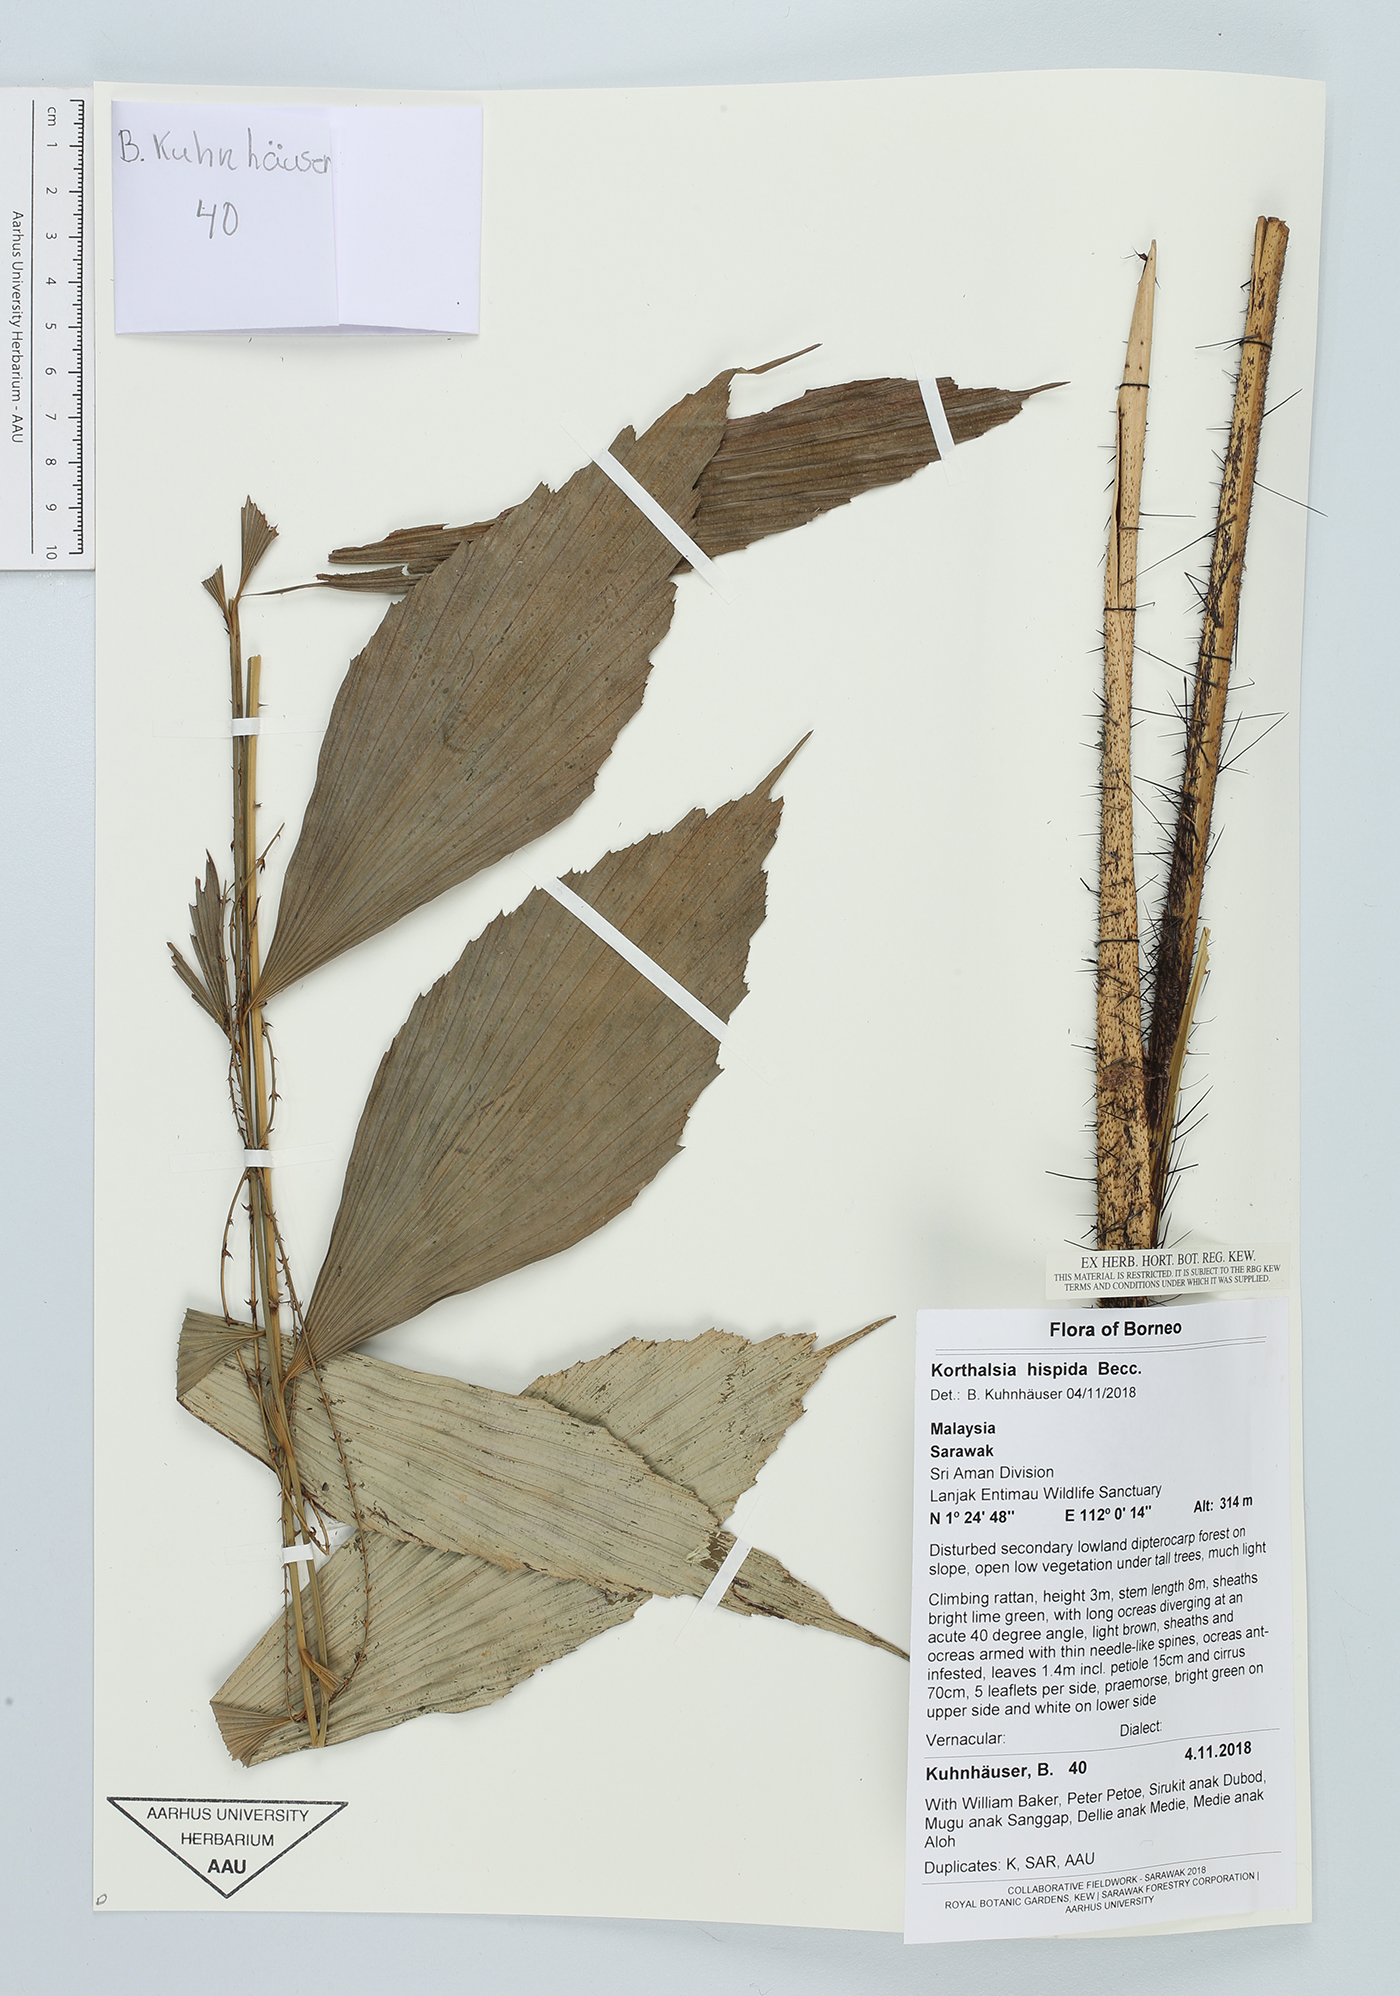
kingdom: Plantae
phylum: Tracheophyta
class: Liliopsida
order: Arecales
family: Arecaceae
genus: Korthalsia
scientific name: Korthalsia hispida
